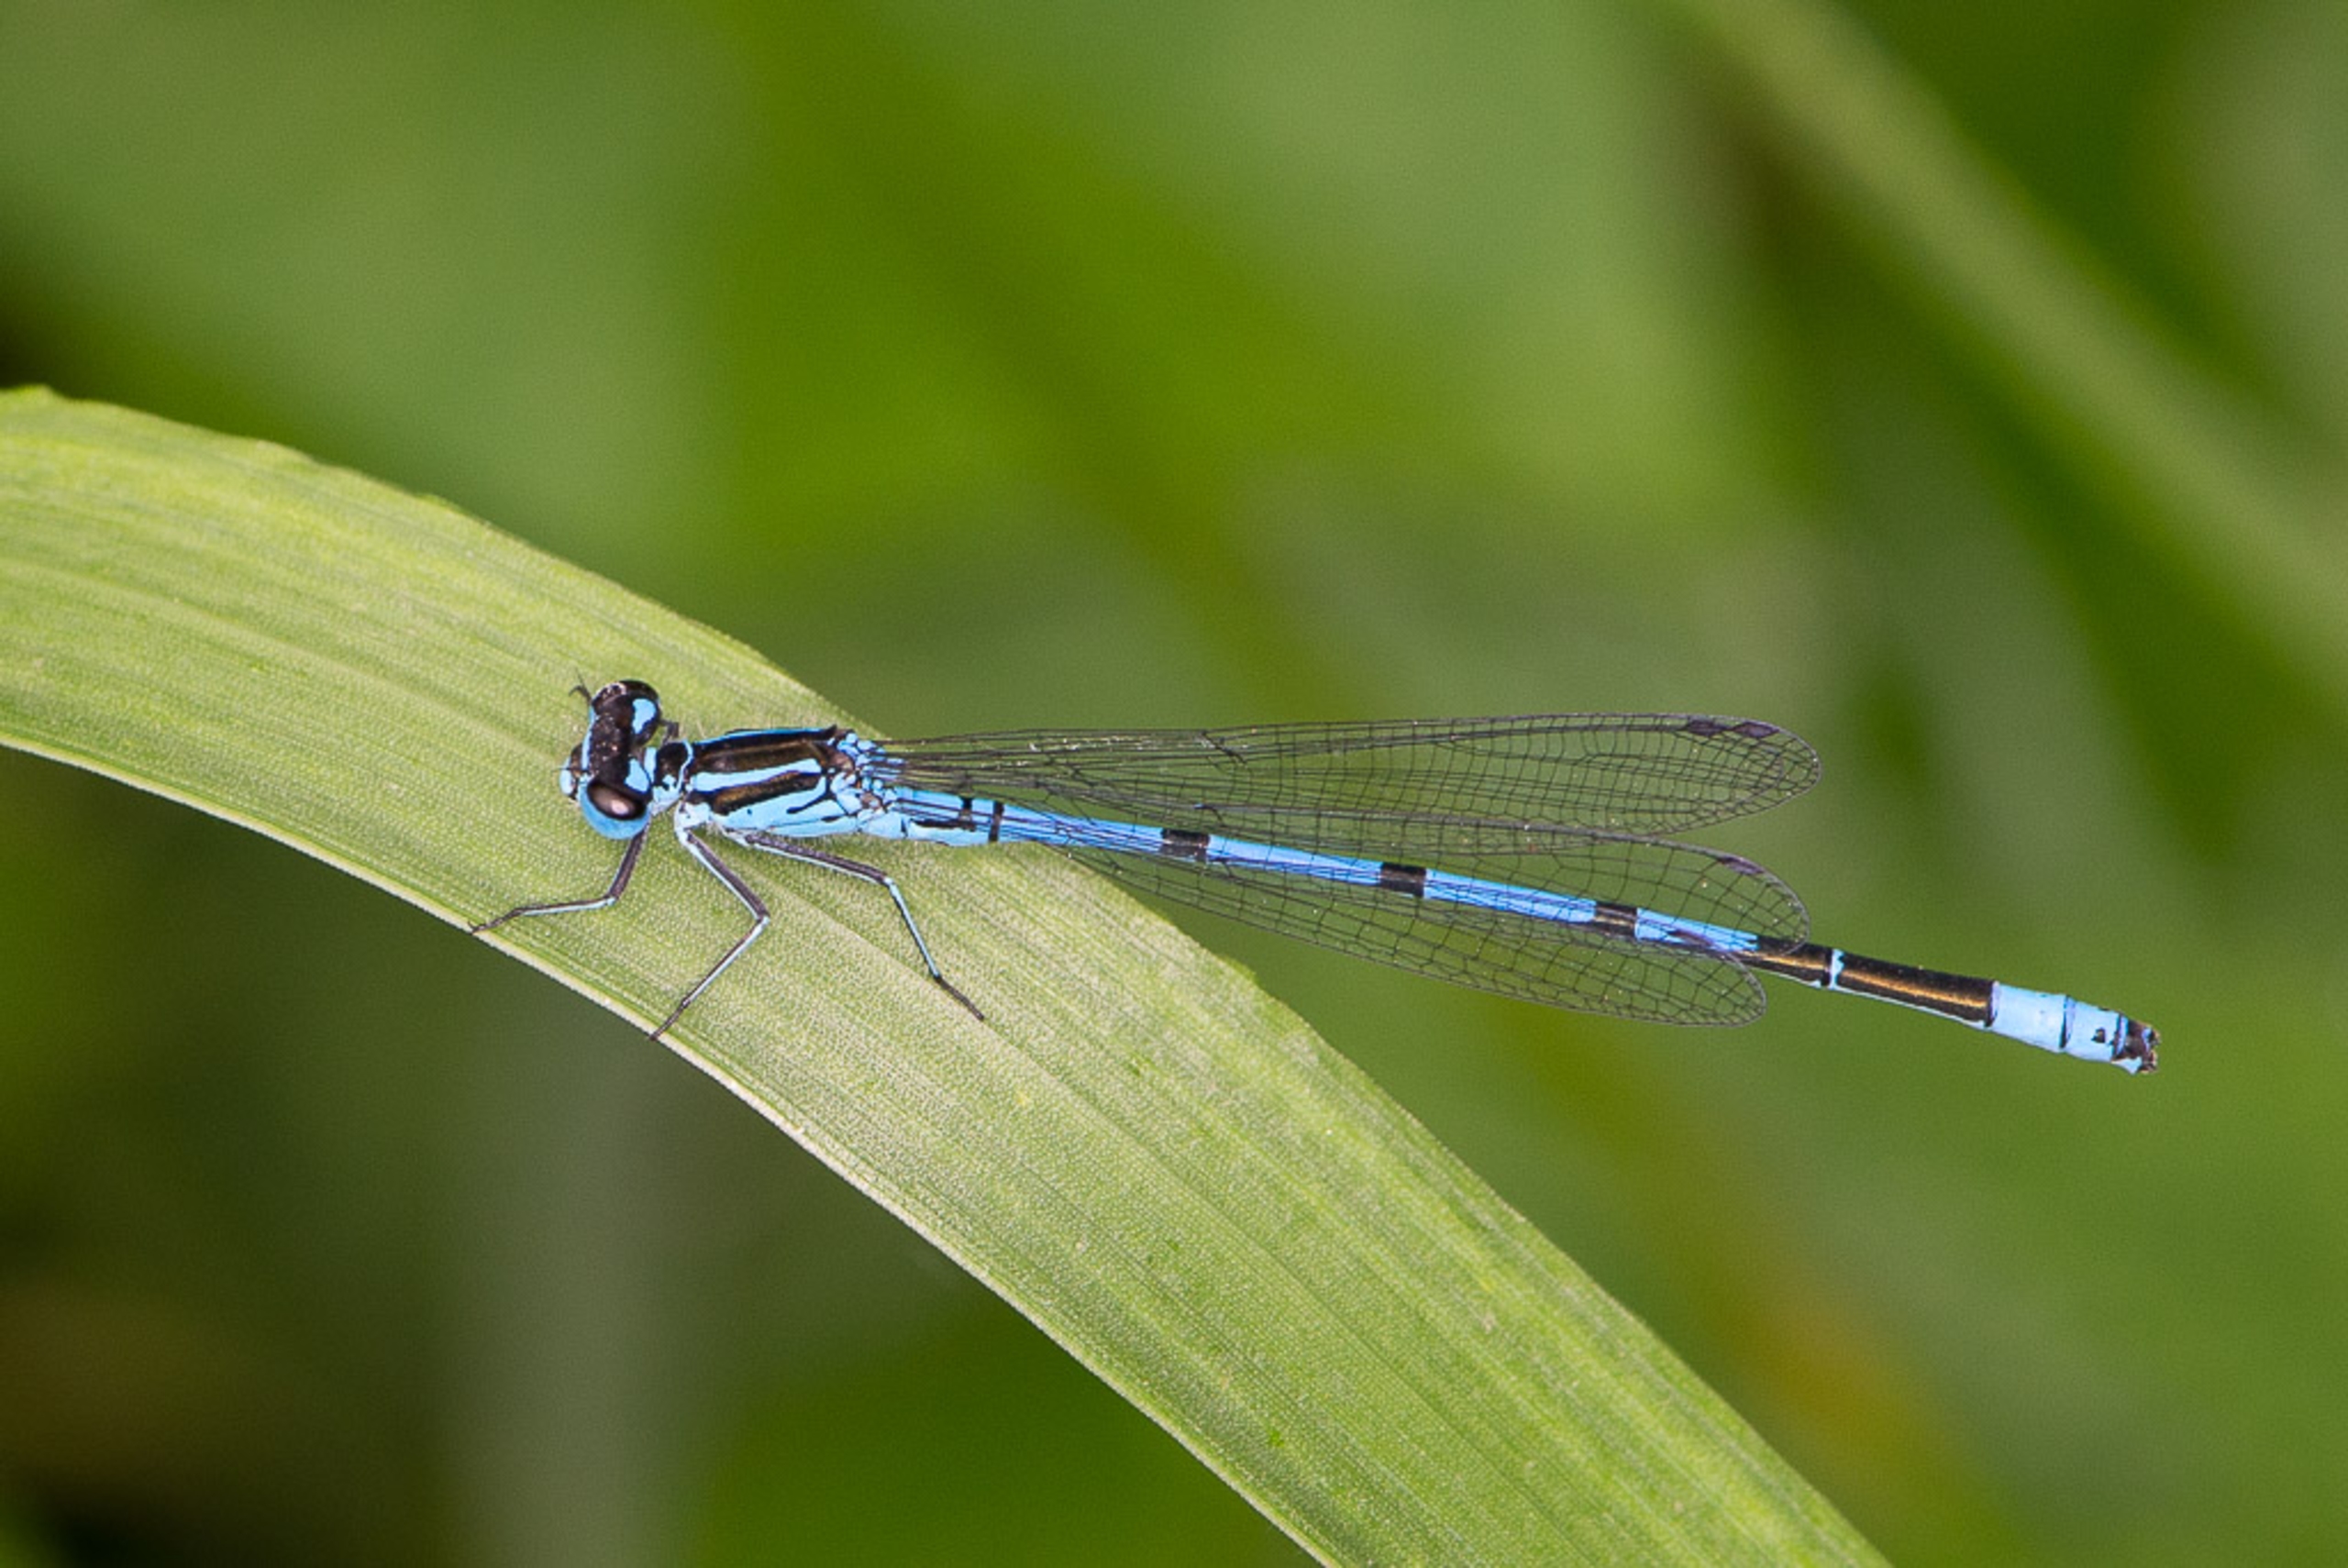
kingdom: Animalia
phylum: Arthropoda
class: Insecta
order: Odonata
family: Coenagrionidae
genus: Coenagrion
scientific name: Coenagrion puella
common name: Hestesko-vandnymfe
